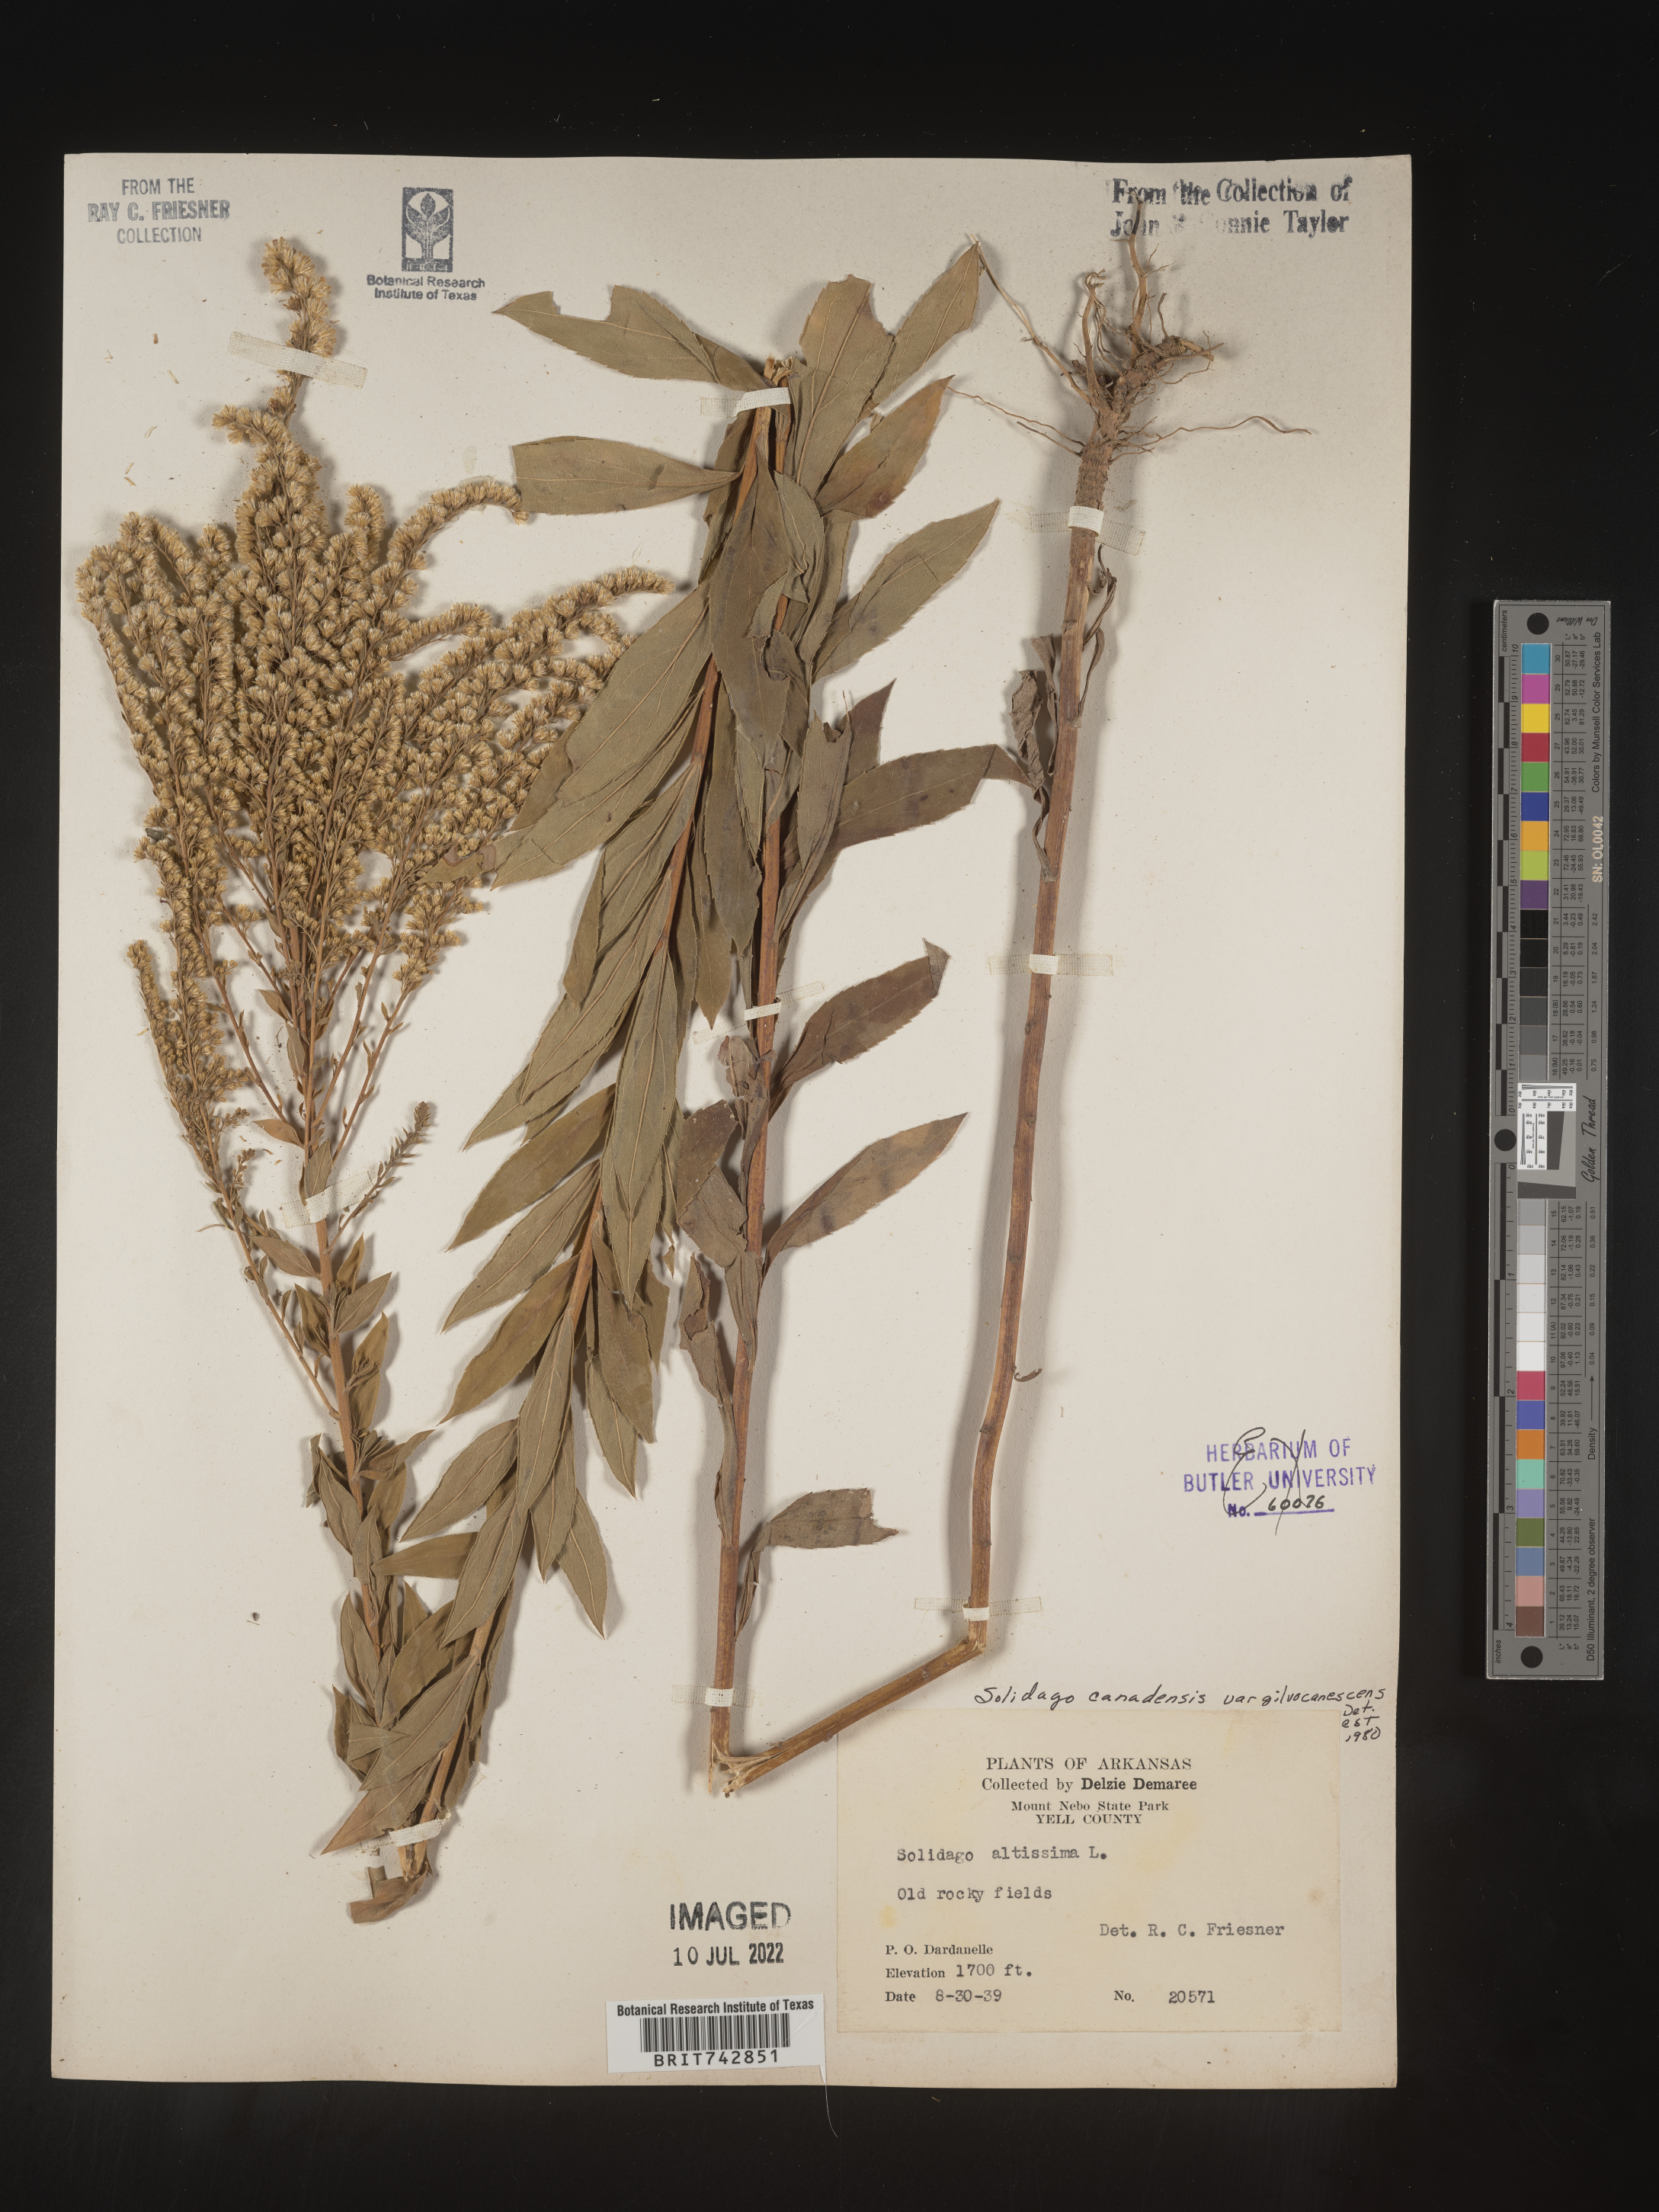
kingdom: Plantae
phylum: Tracheophyta
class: Magnoliopsida
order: Asterales
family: Asteraceae
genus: Solidago
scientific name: Solidago altissima
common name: Late goldenrod
